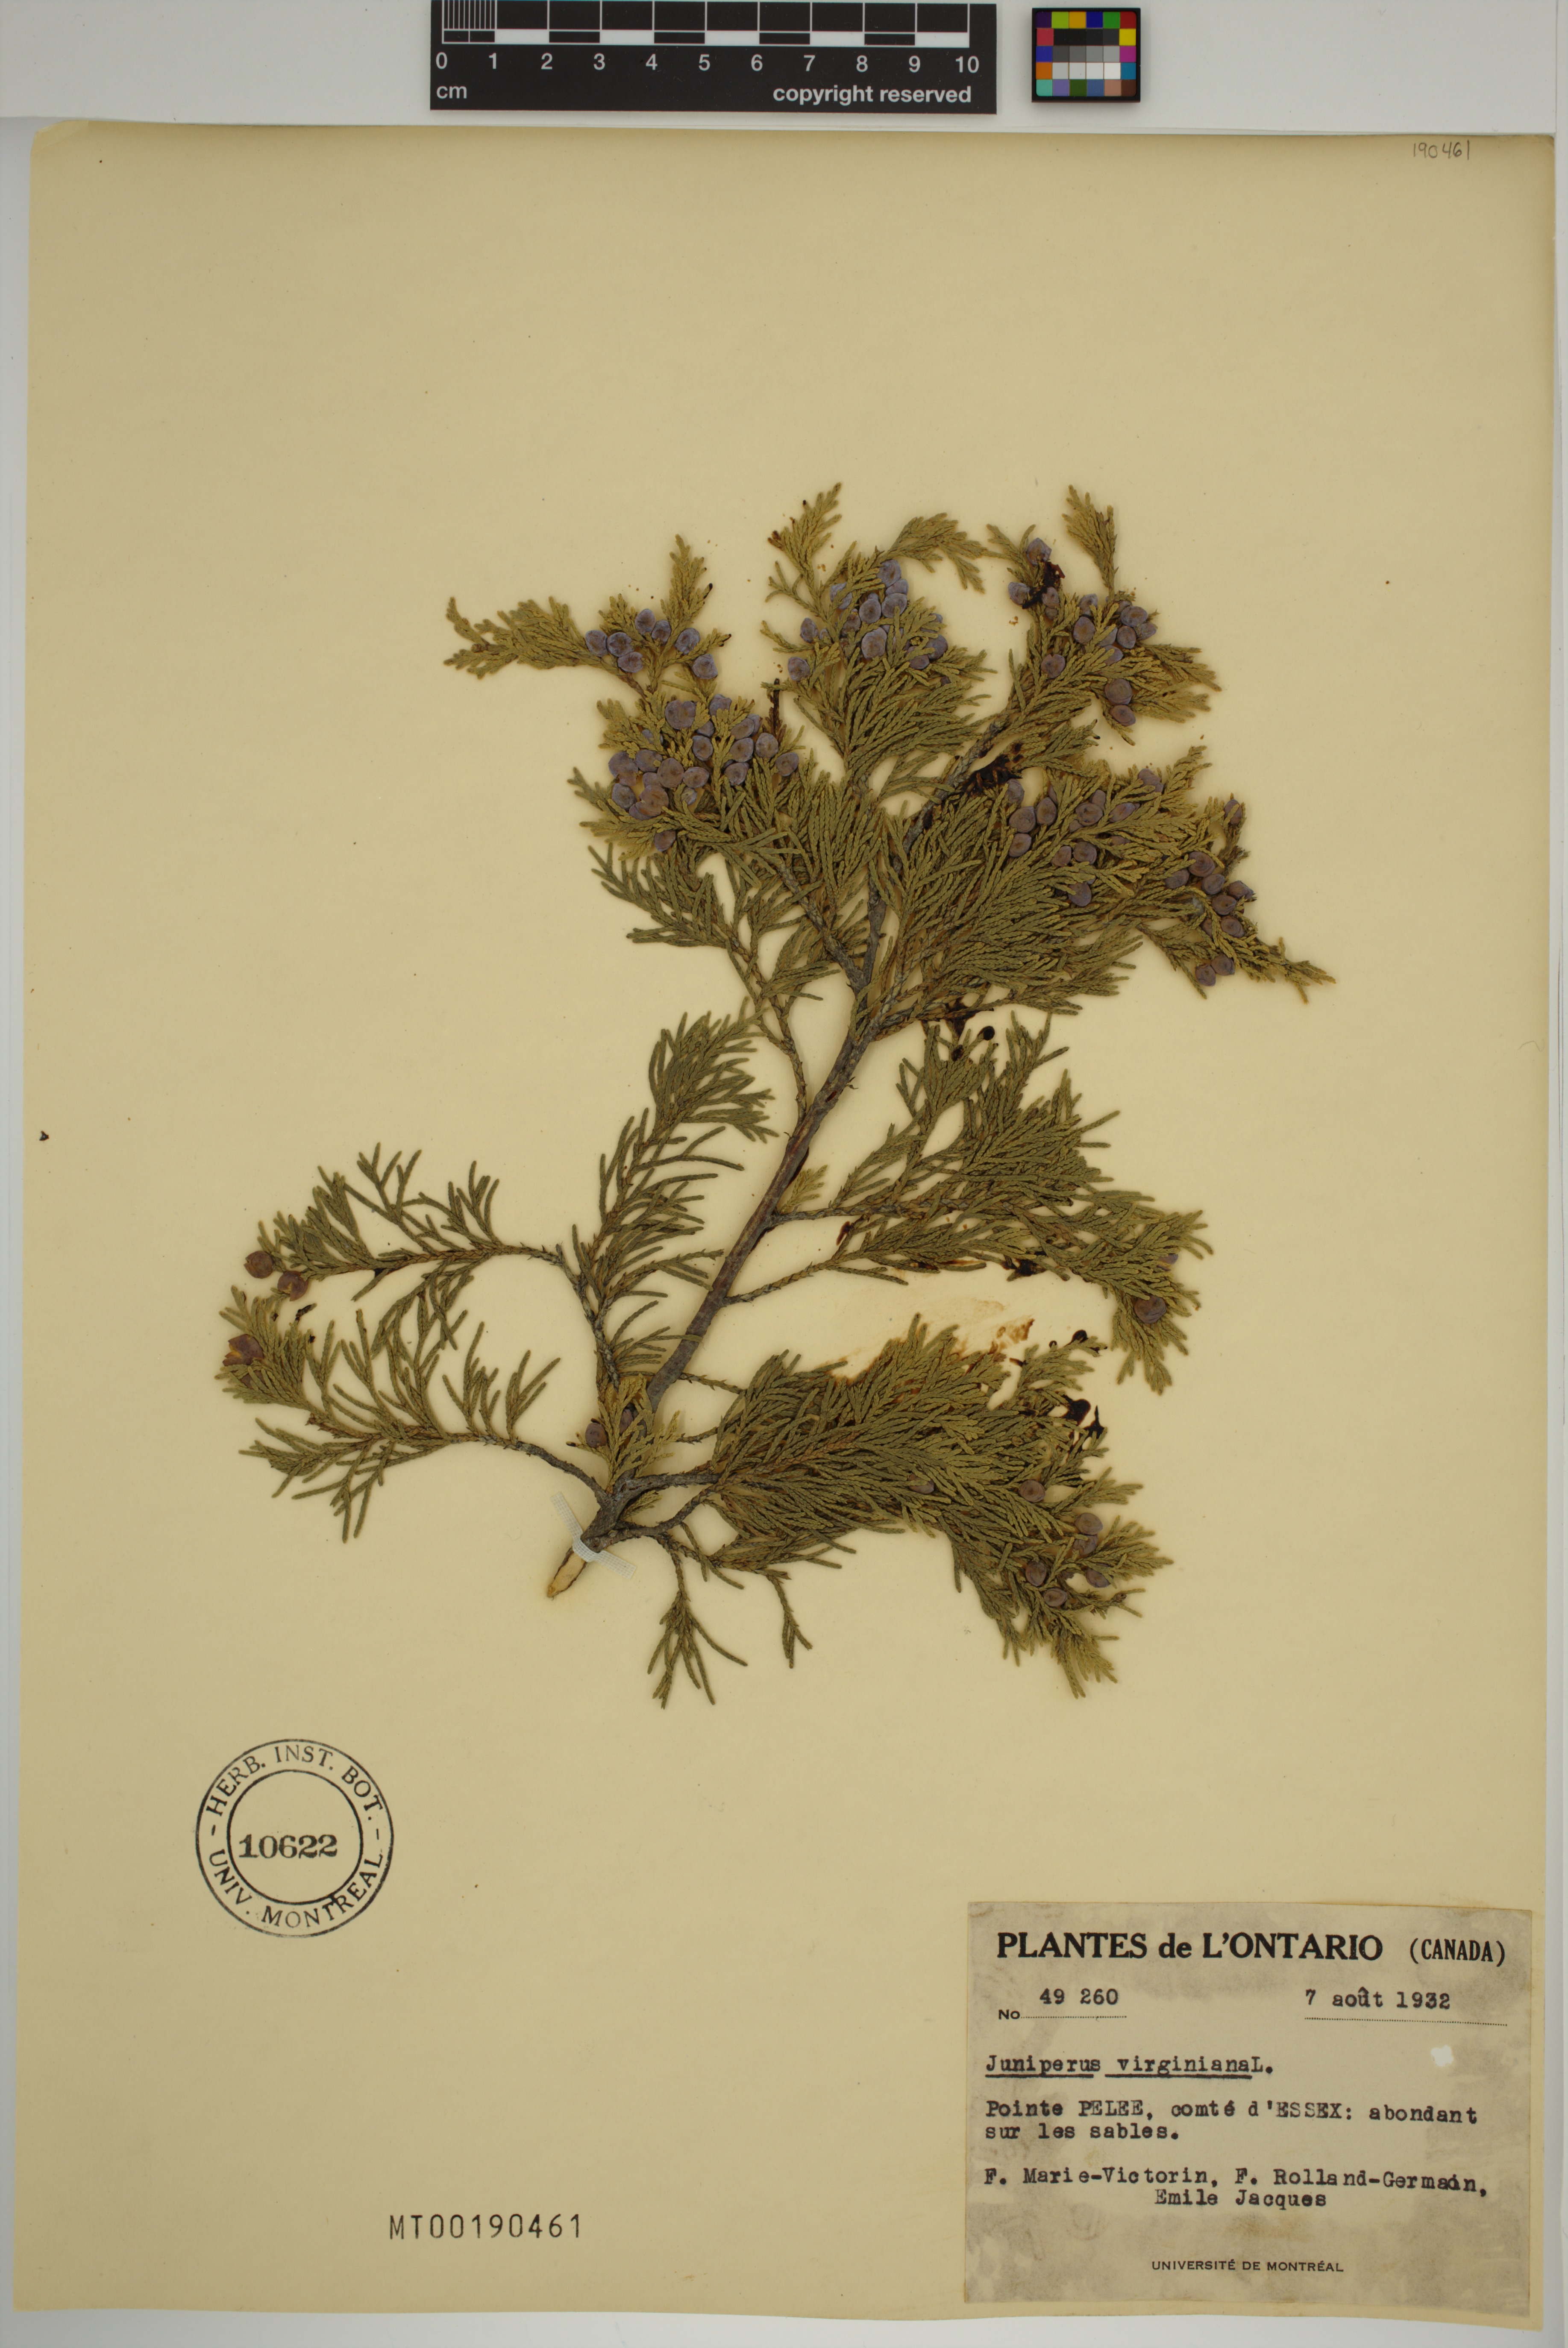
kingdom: Plantae
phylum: Tracheophyta
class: Pinopsida
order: Pinales
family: Cupressaceae
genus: Juniperus
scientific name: Juniperus virginiana
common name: Red juniper
